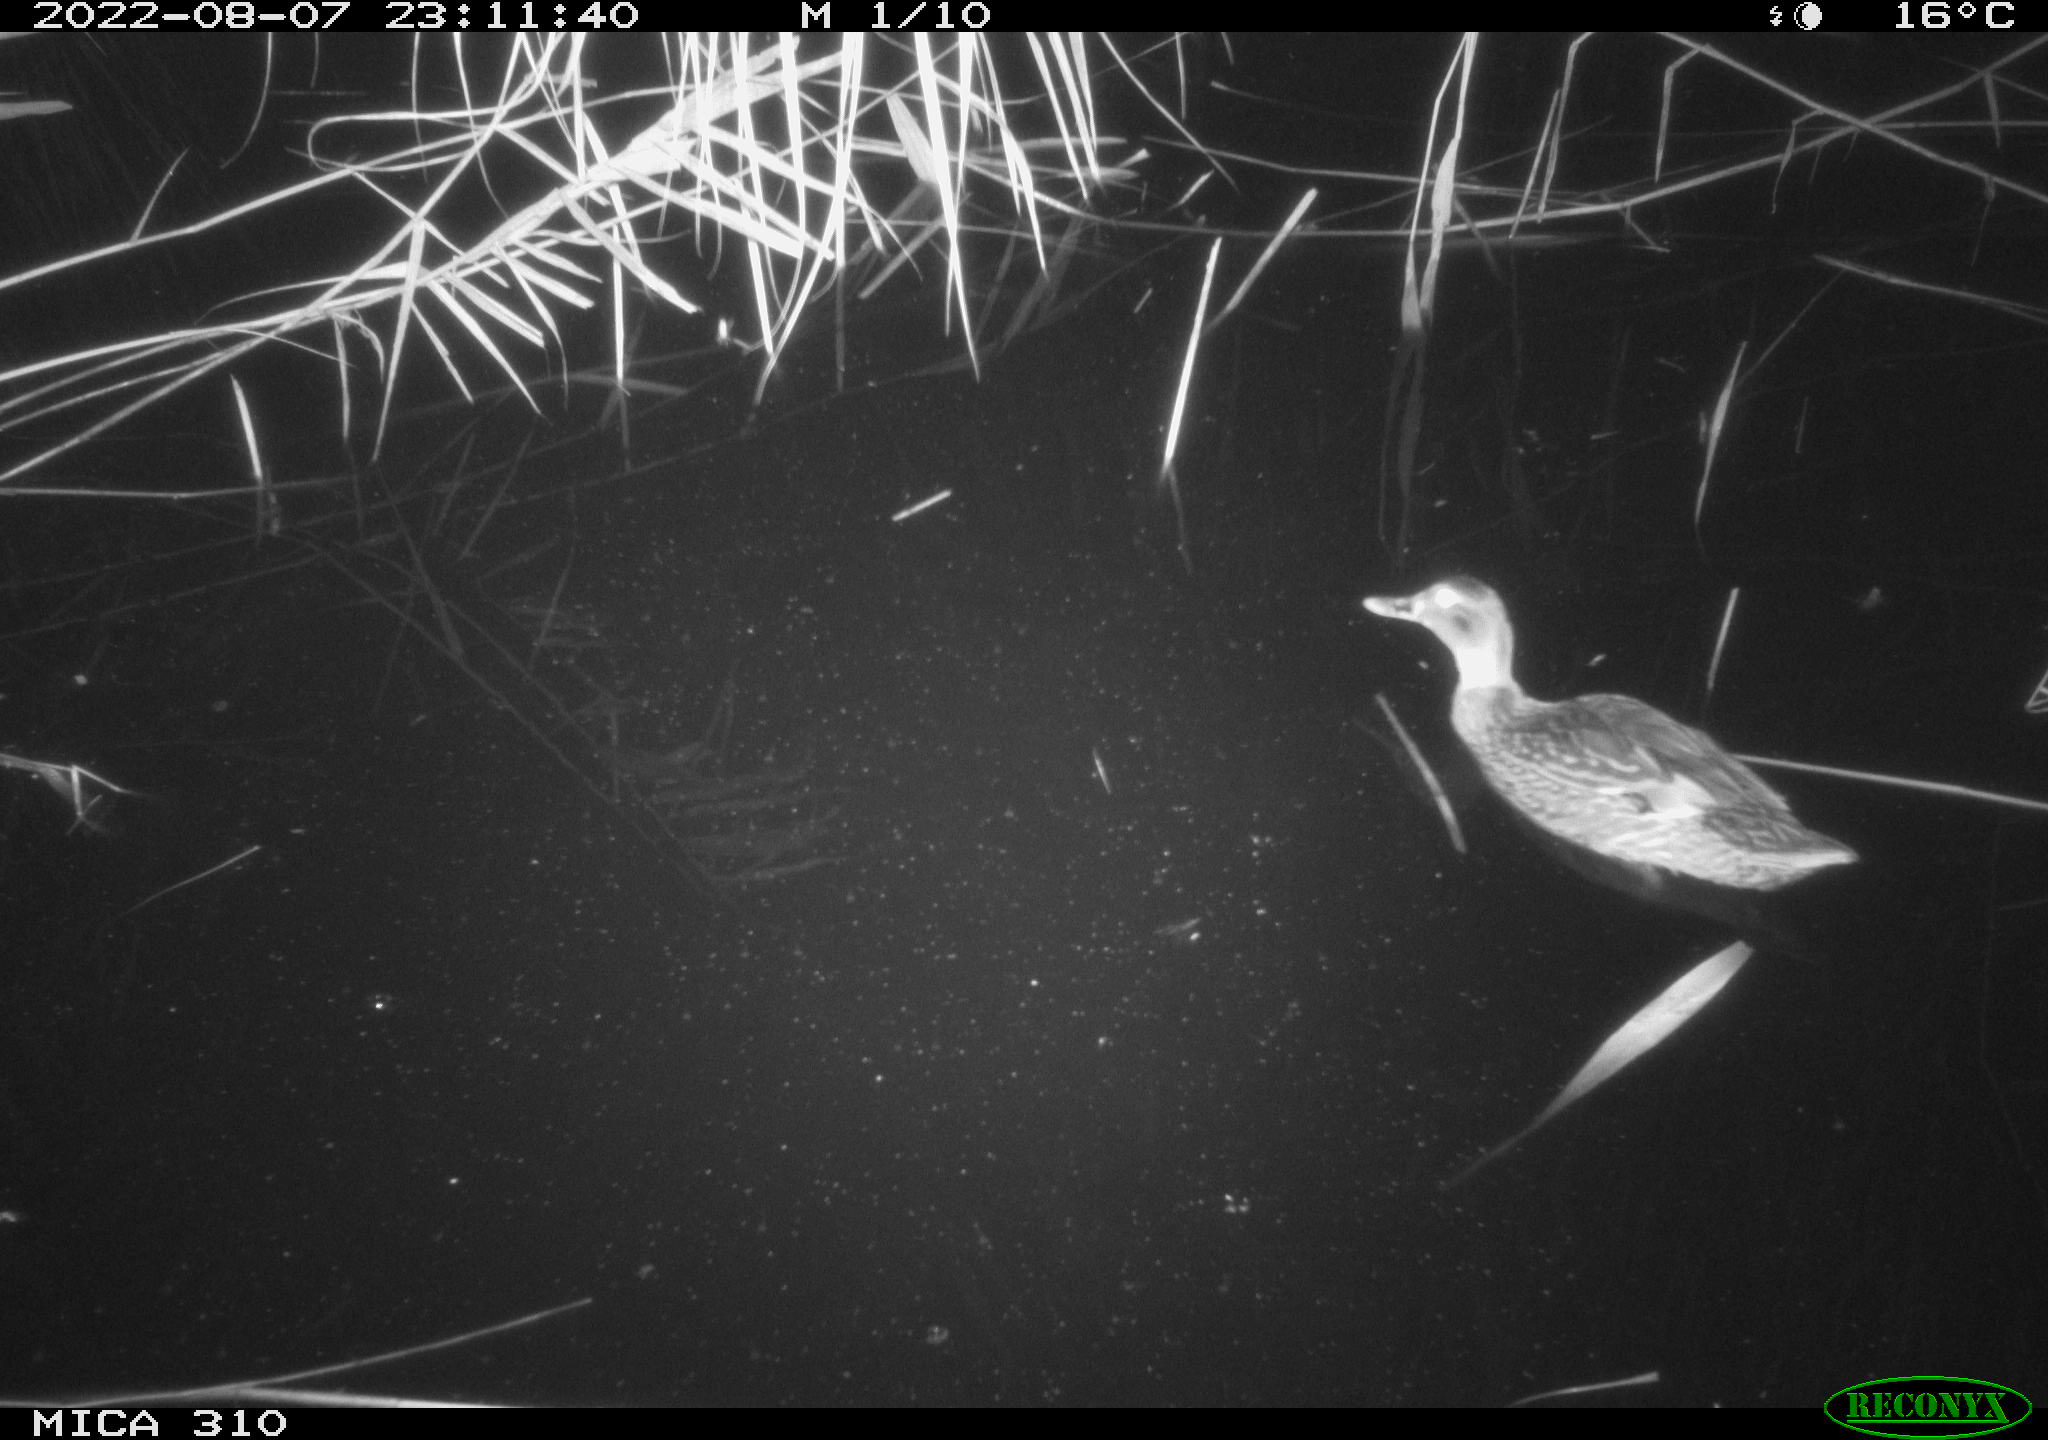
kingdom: Animalia
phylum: Chordata
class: Aves
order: Anseriformes
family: Anatidae
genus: Anas
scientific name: Anas platyrhynchos
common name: Mallard
